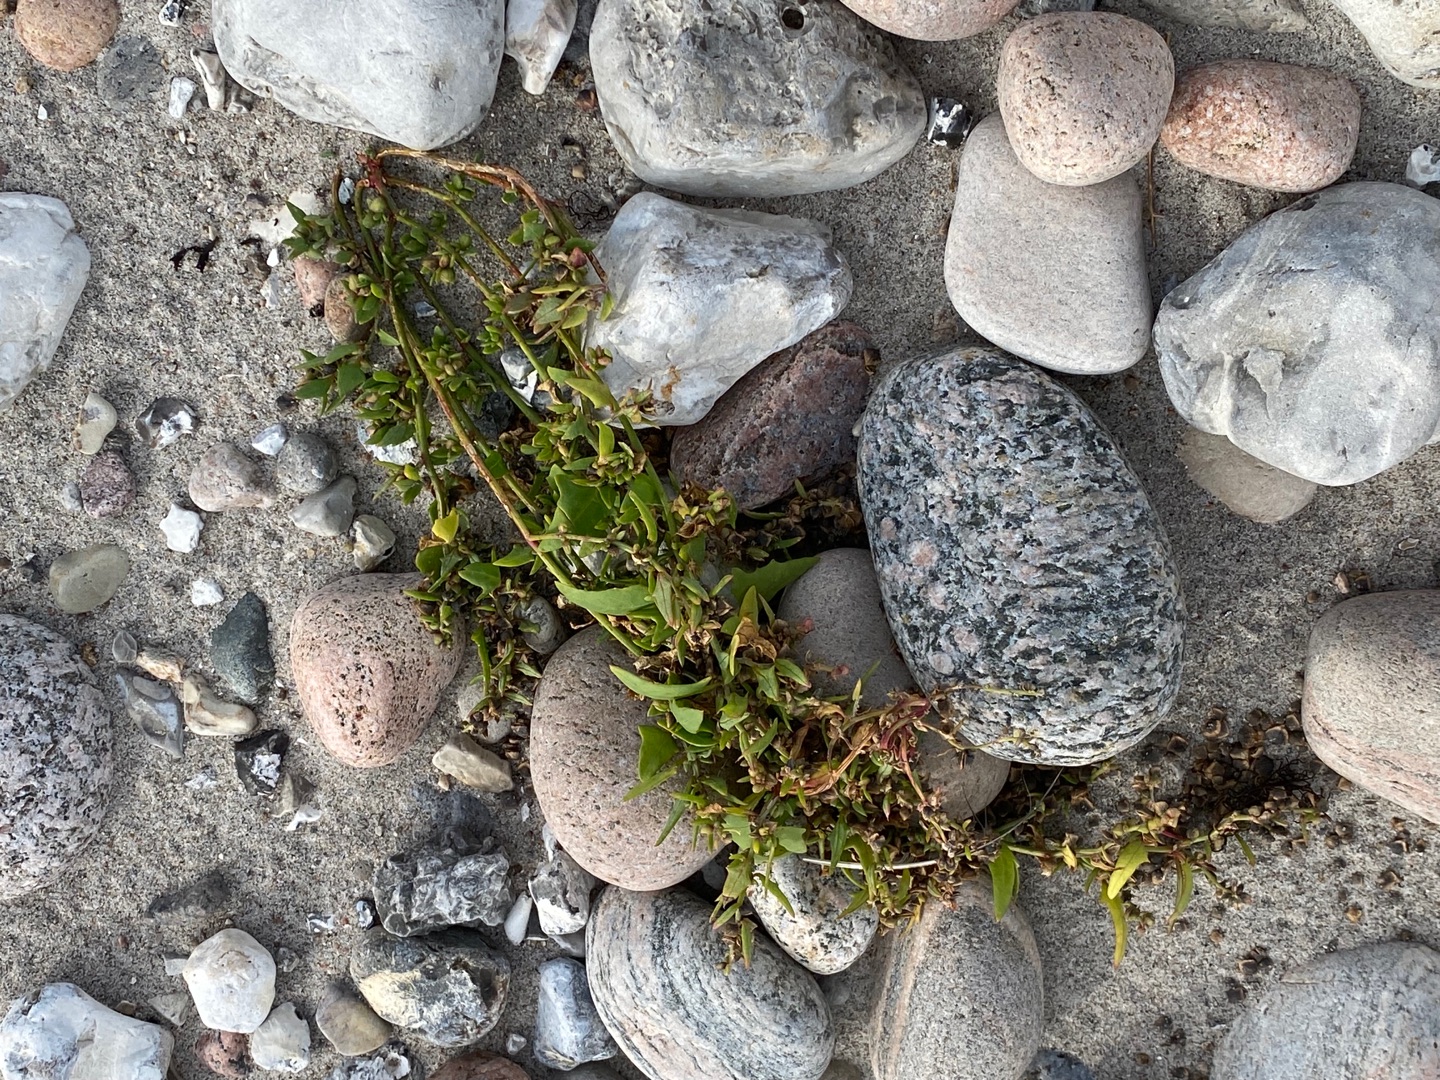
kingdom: Plantae
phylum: Tracheophyta
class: Magnoliopsida
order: Caryophyllales
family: Amaranthaceae
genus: Atriplex
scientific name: Atriplex prostrata
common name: Spyd-mælde
